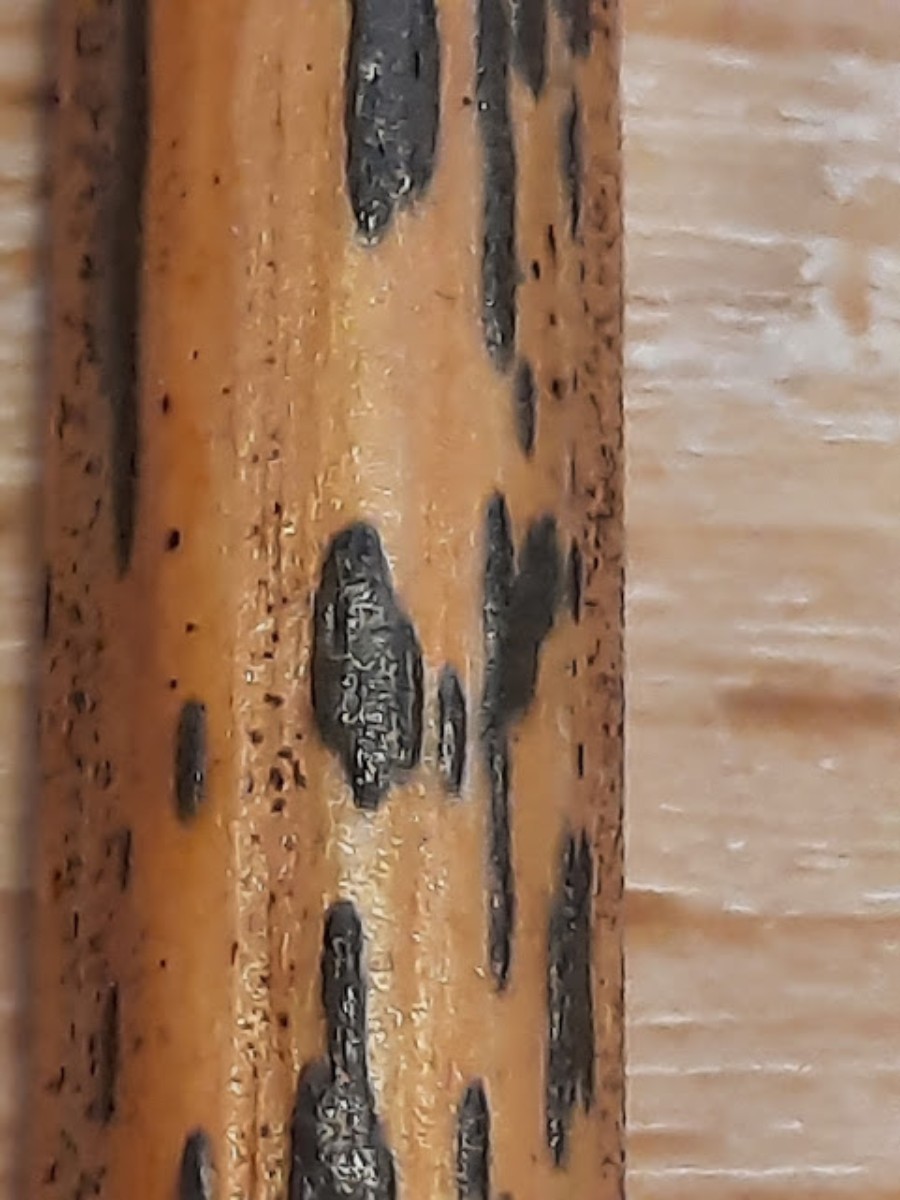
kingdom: Fungi
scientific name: Fungi
